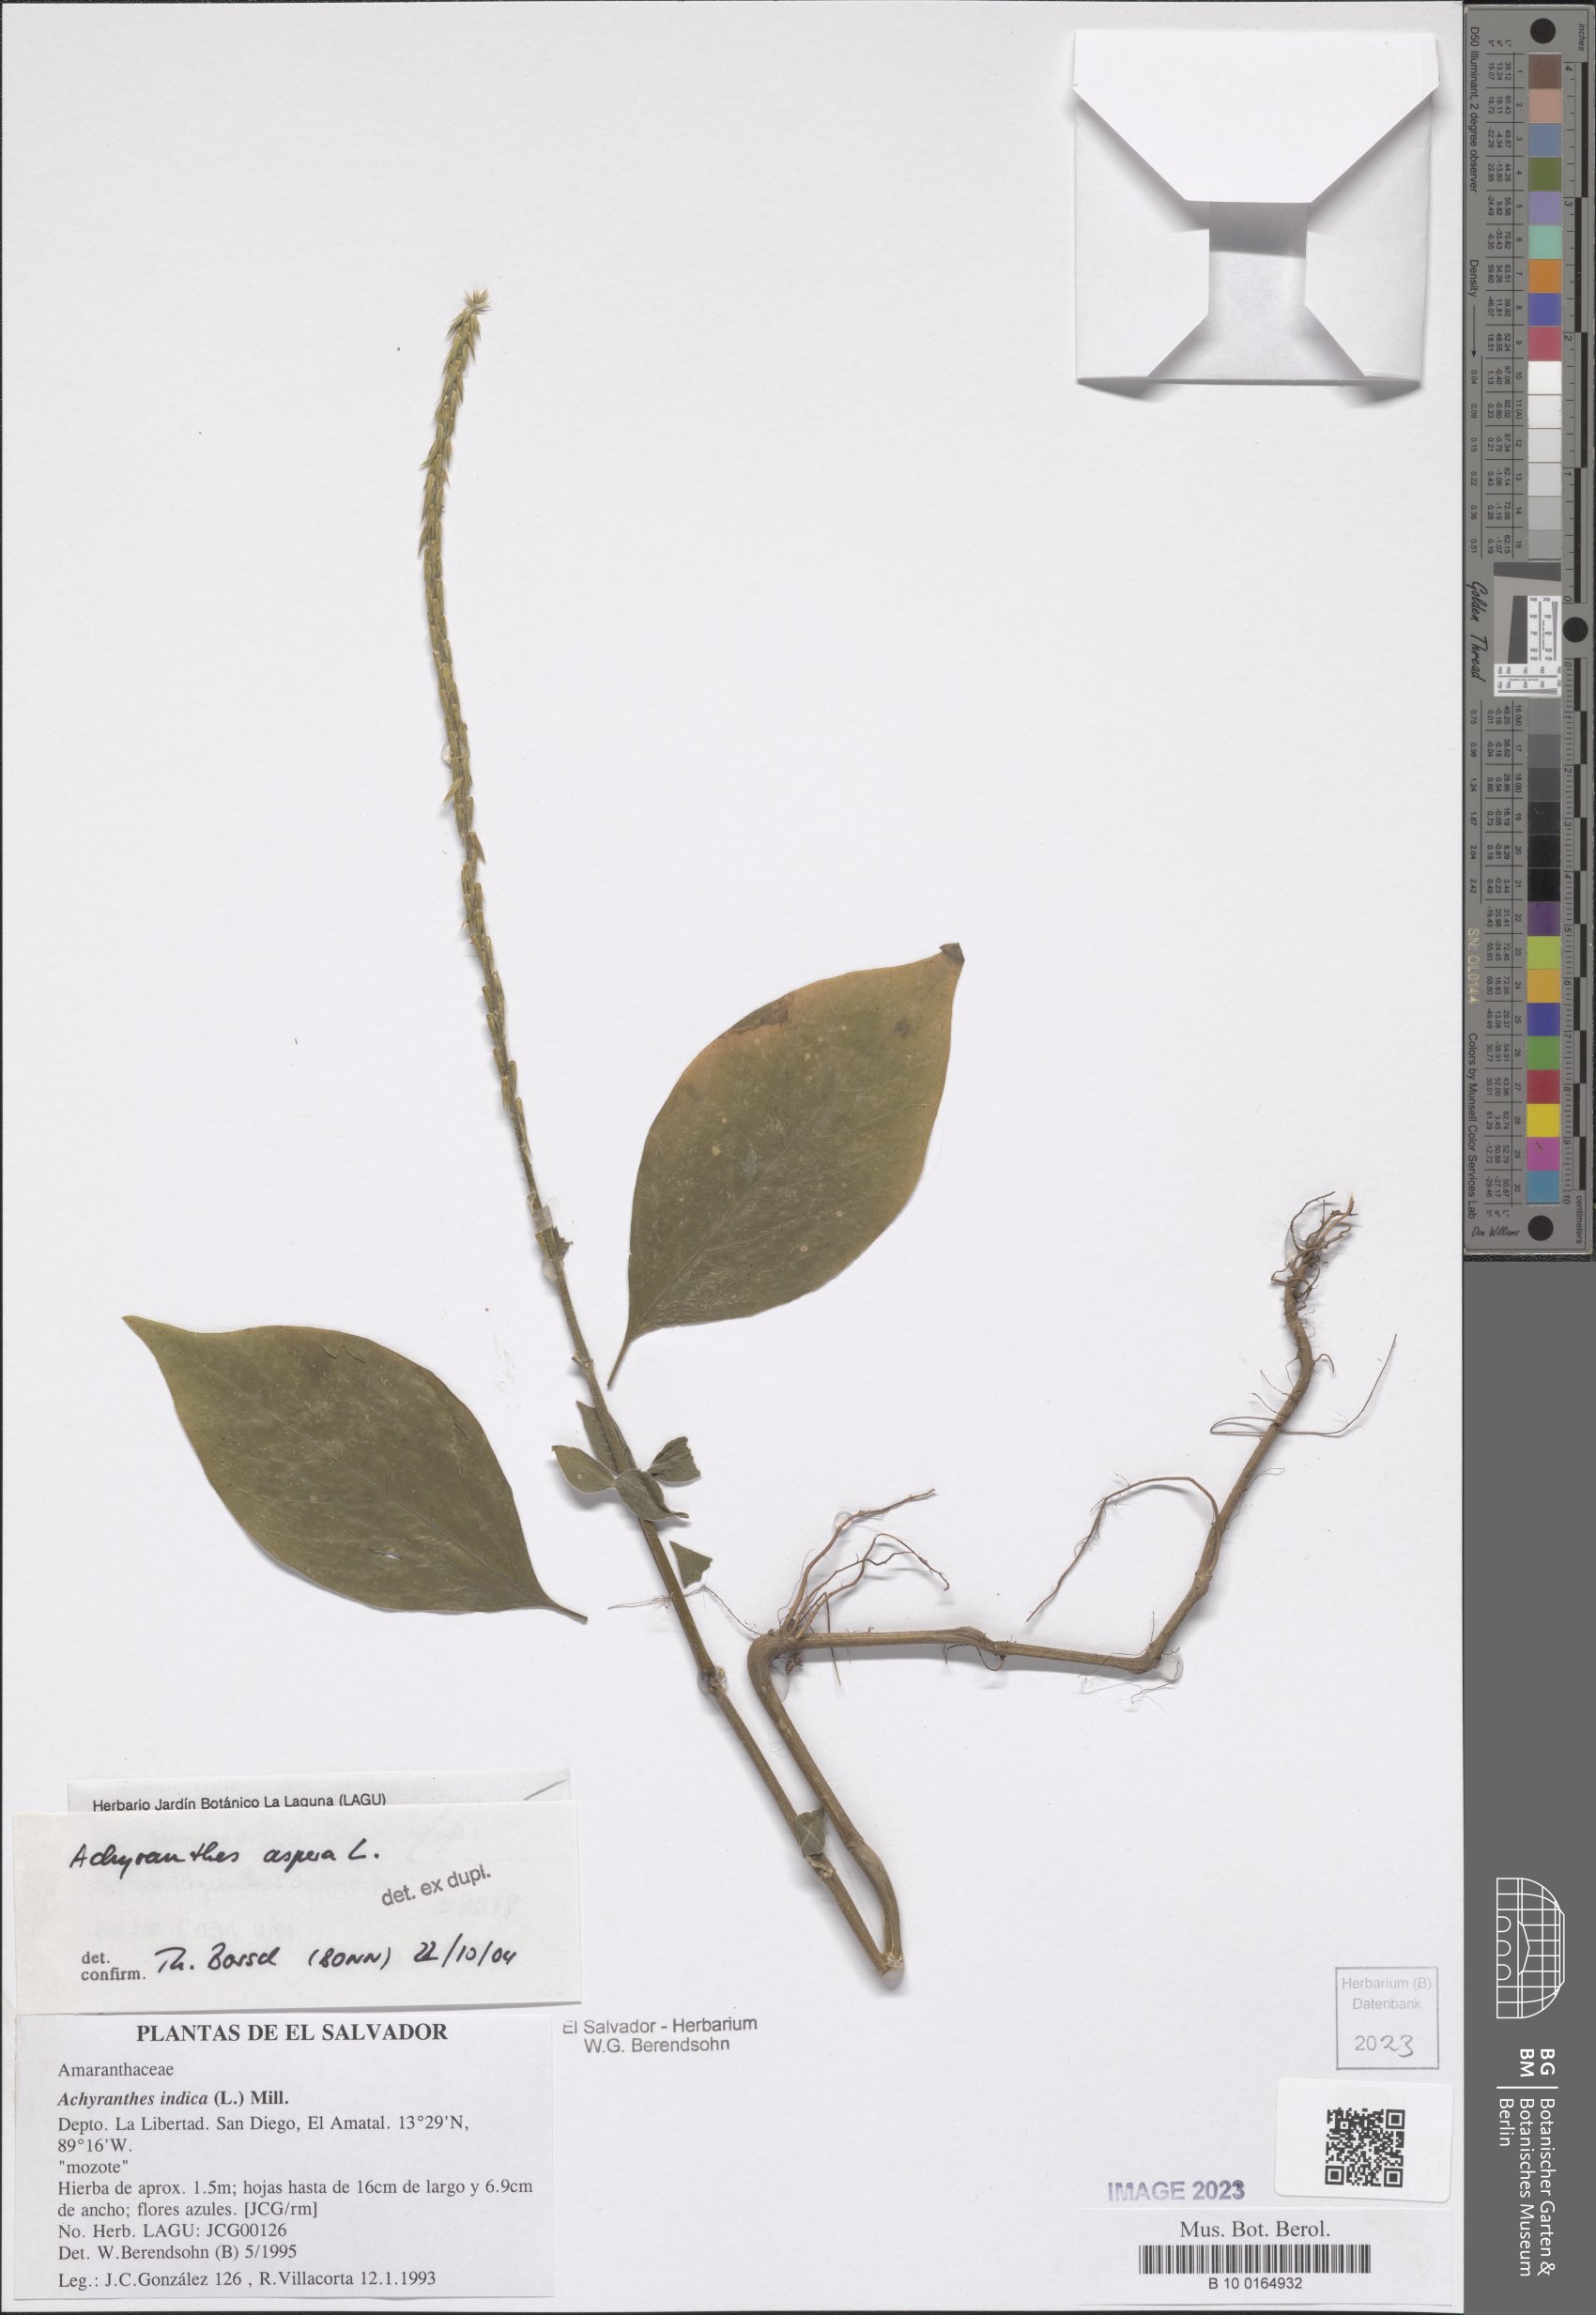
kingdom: Plantae
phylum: Tracheophyta
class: Magnoliopsida
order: Caryophyllales
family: Amaranthaceae
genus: Achyranthes
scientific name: Achyranthes aspera
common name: Devil's horsewhip
